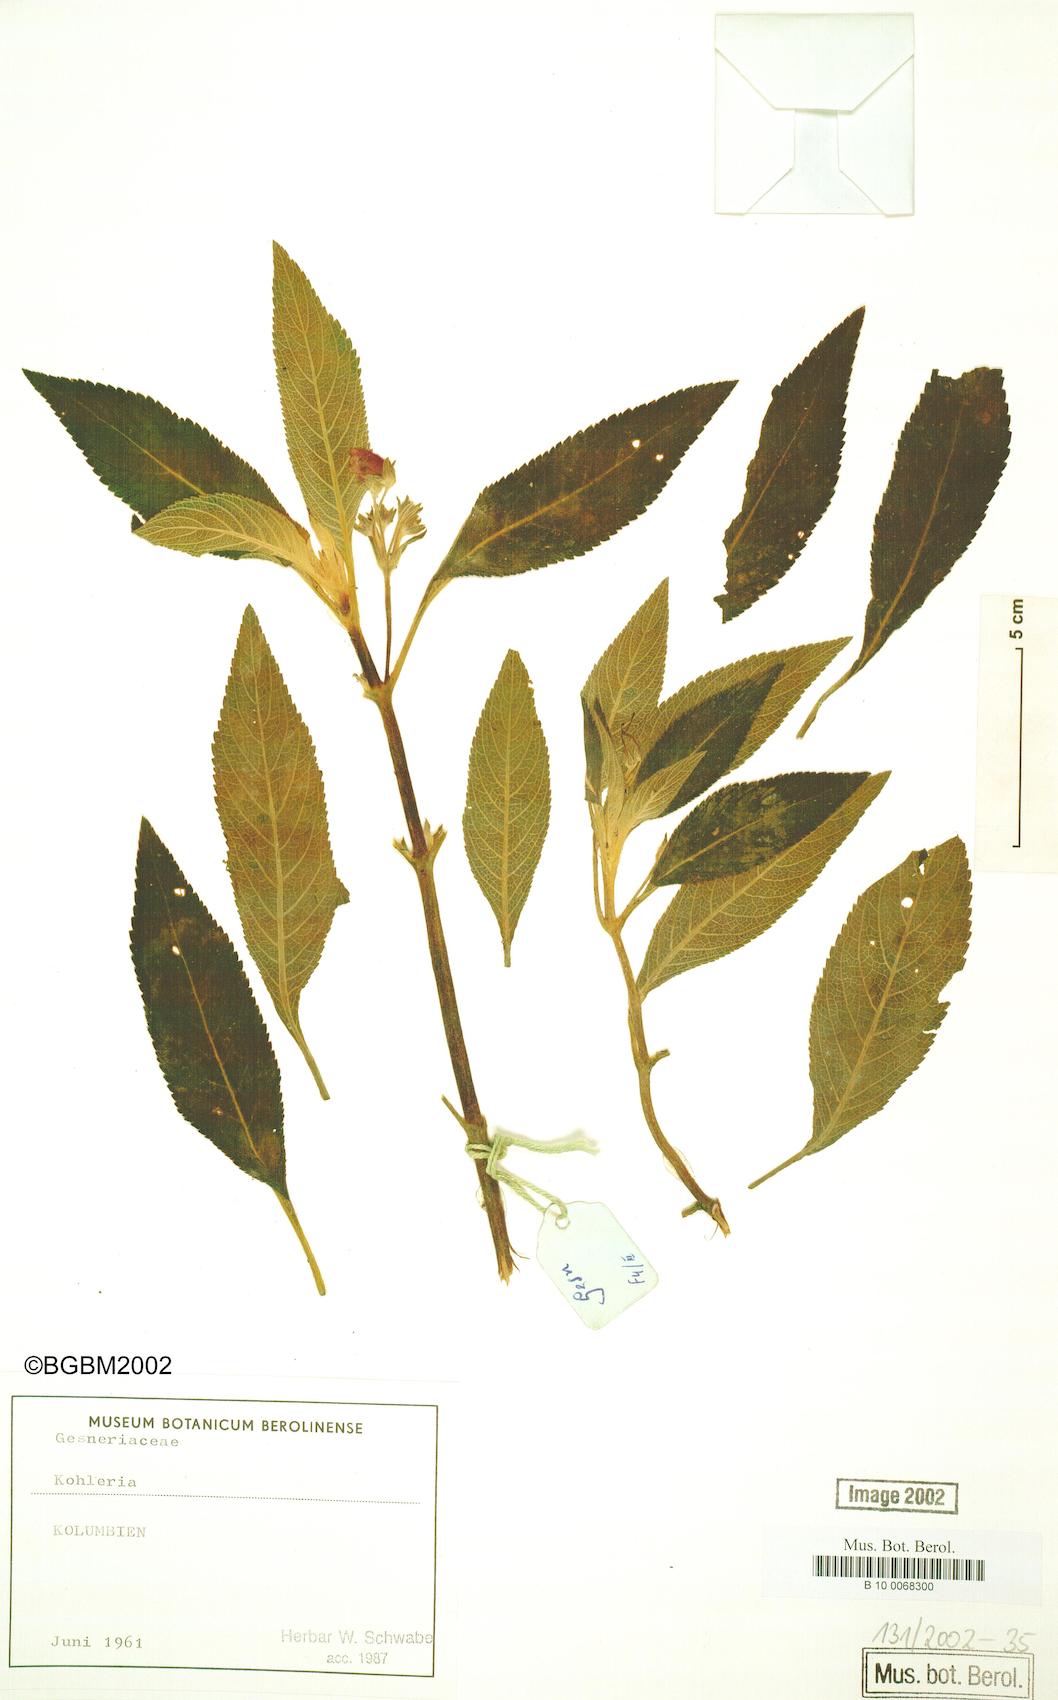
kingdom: Plantae
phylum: Tracheophyta
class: Magnoliopsida
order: Lamiales
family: Gesneriaceae
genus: Kohleria
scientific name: Kohleria
